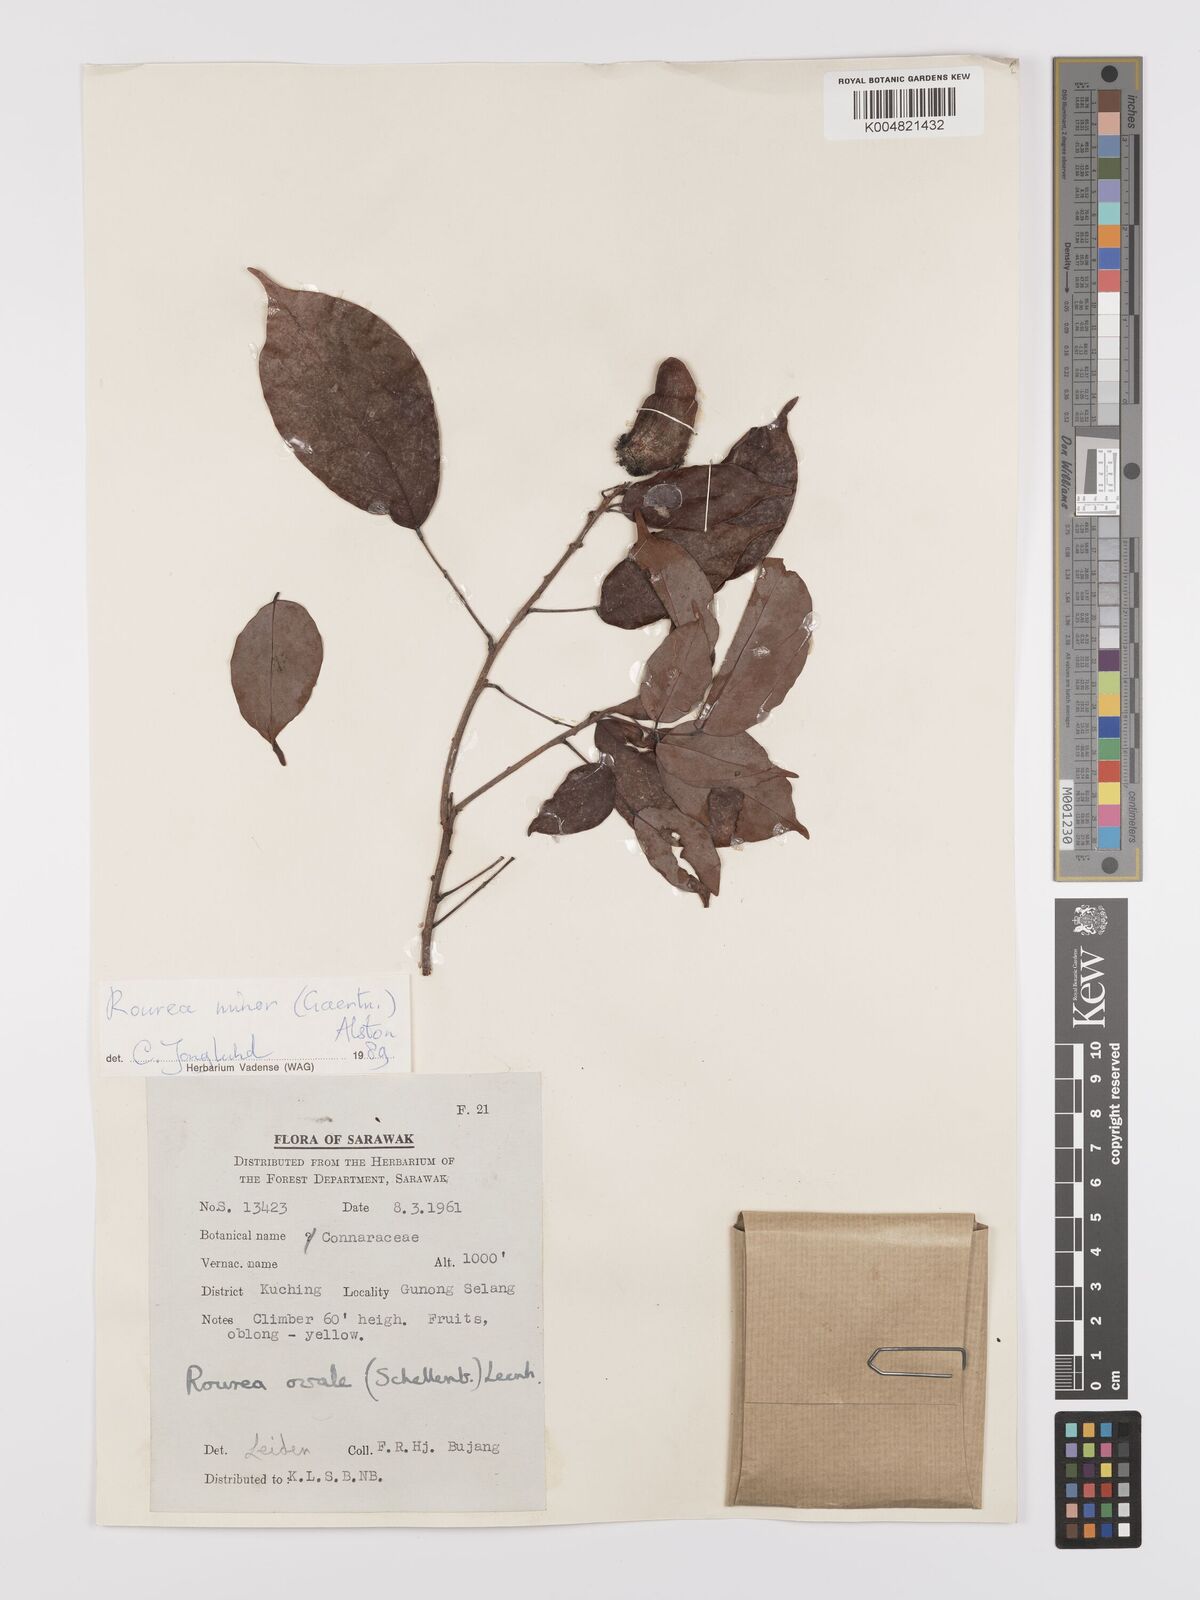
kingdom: Plantae
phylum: Tracheophyta
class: Magnoliopsida
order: Oxalidales
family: Connaraceae
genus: Rourea
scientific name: Rourea ovalis
